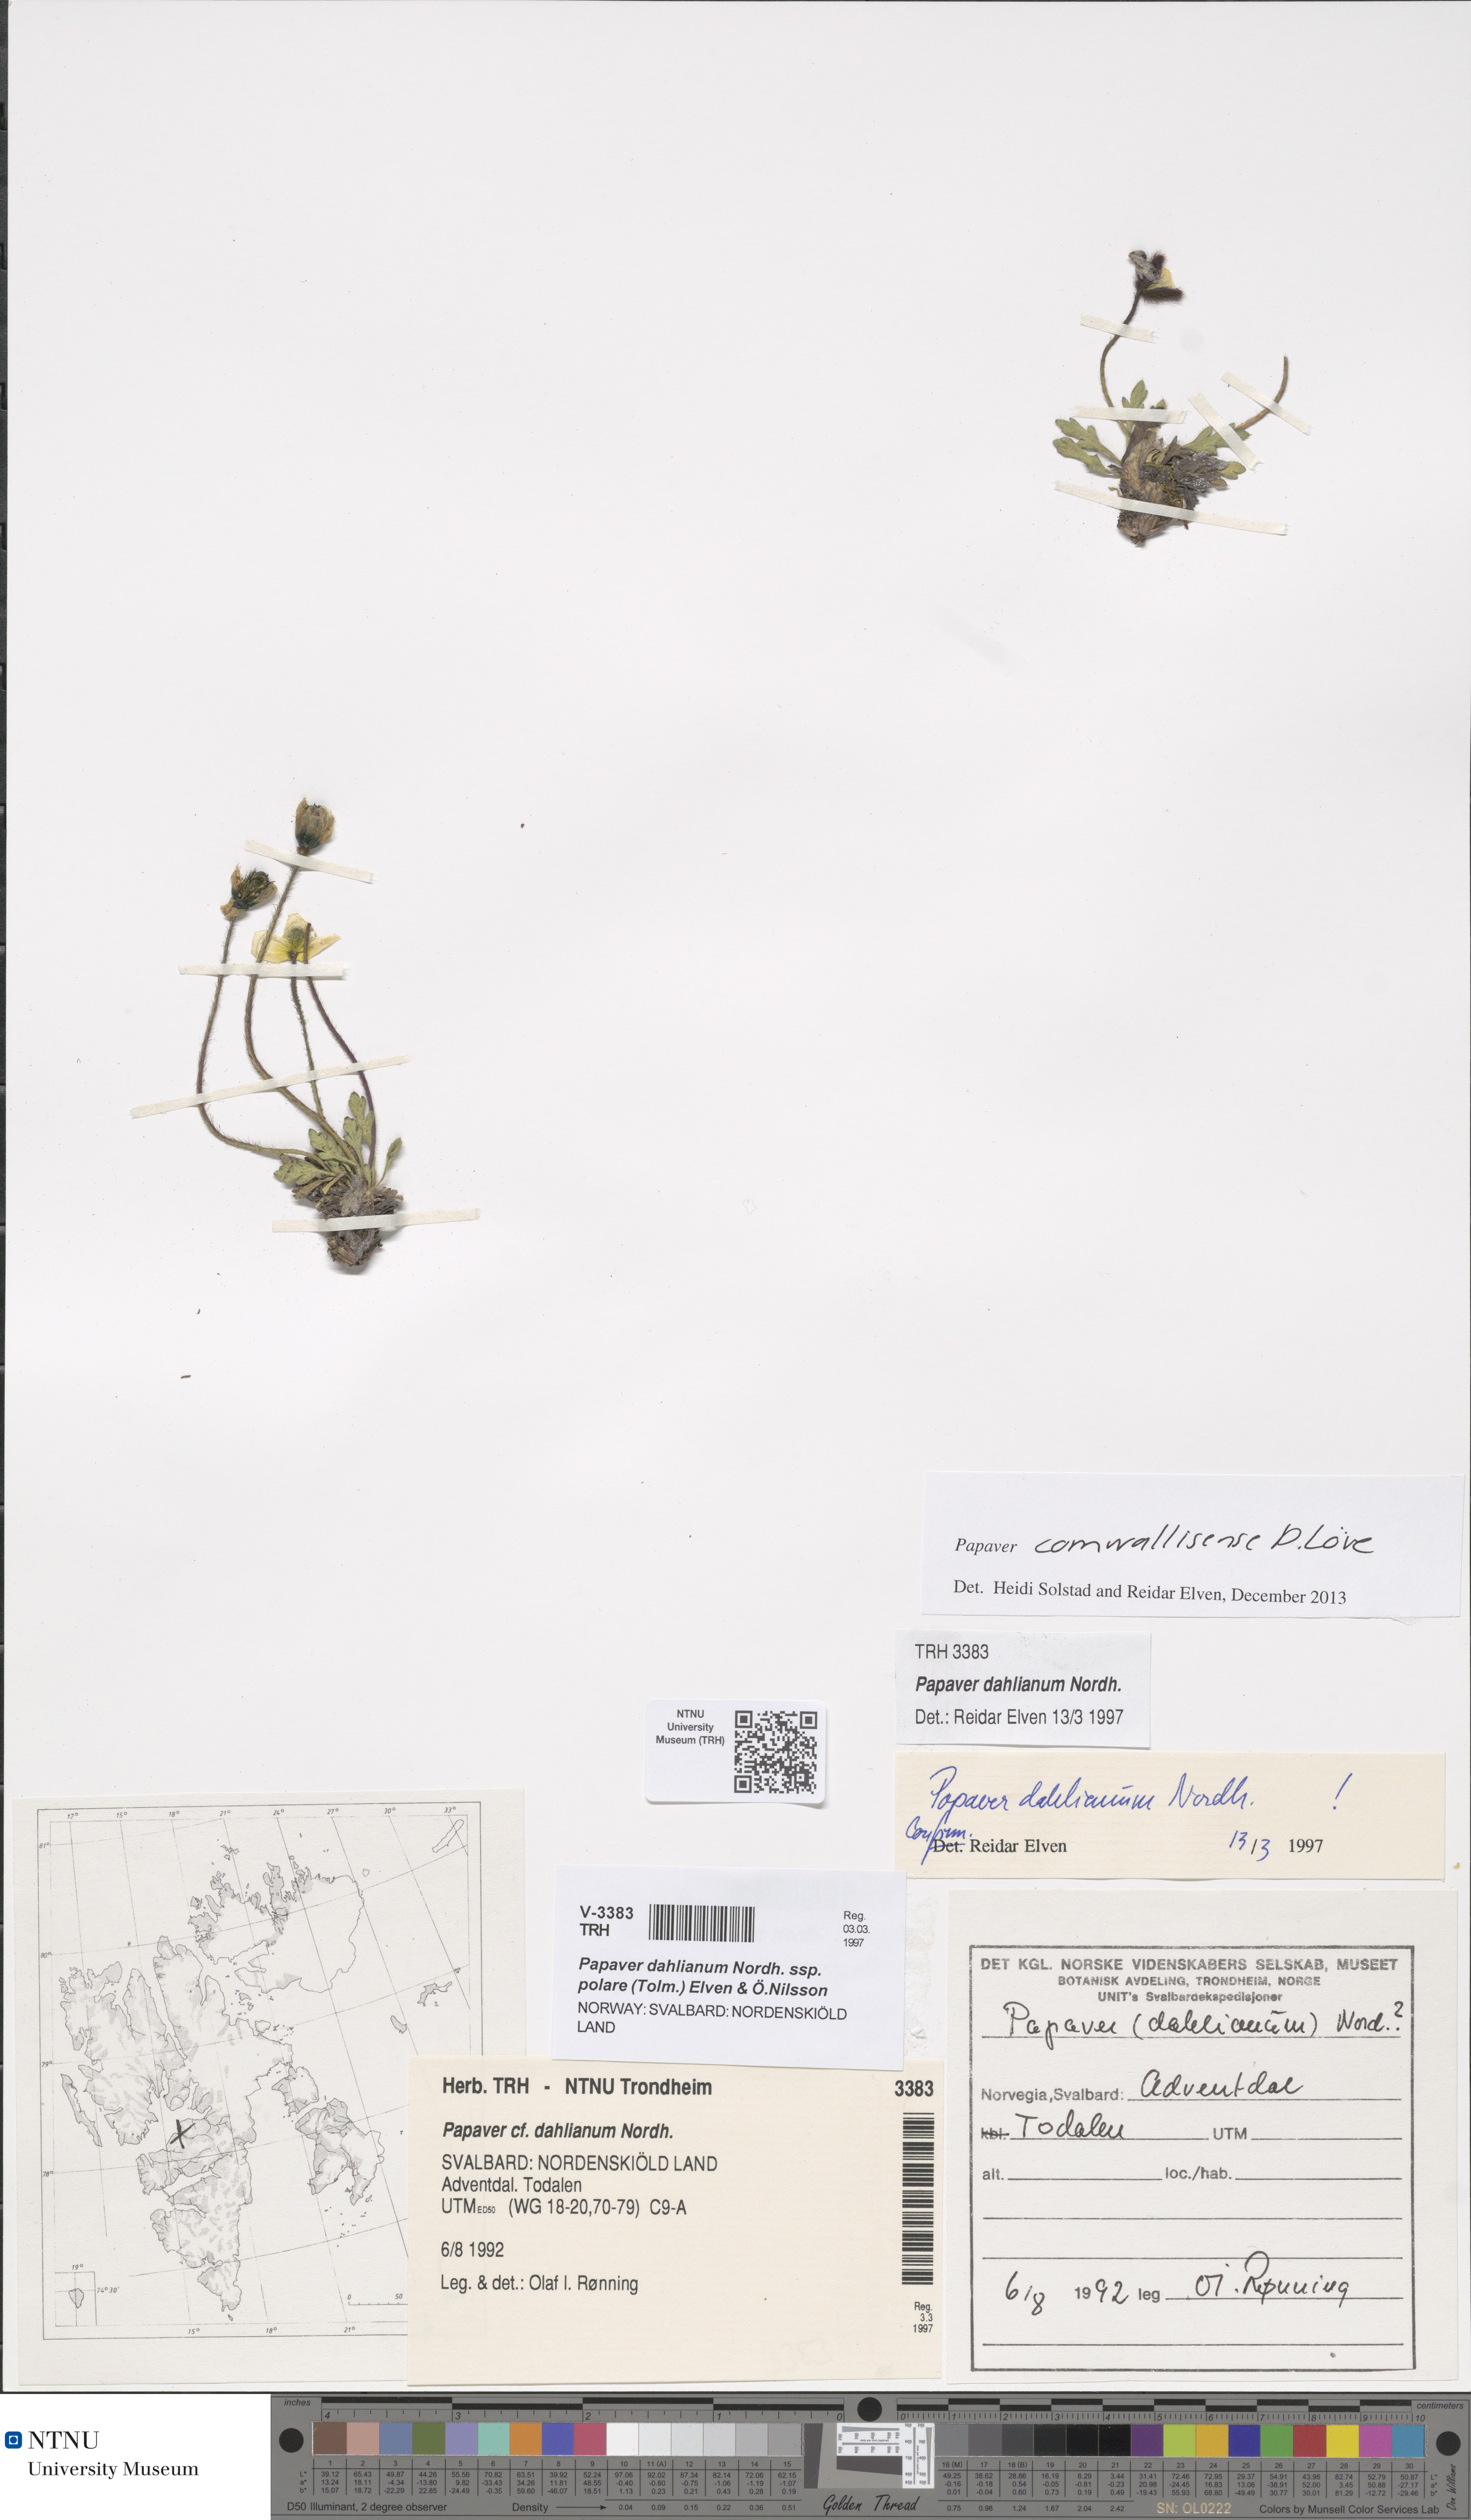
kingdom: Plantae
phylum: Tracheophyta
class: Magnoliopsida
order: Ranunculales
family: Papaveraceae
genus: Papaver
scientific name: Papaver radicatum
